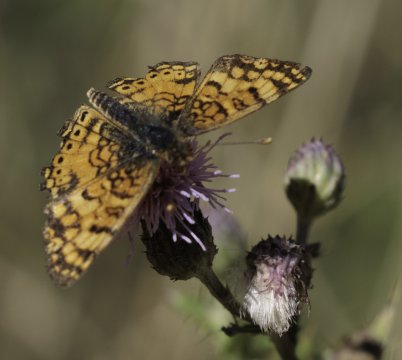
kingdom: Animalia
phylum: Arthropoda
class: Insecta
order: Lepidoptera
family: Nymphalidae
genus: Eresia
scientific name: Eresia aveyrona
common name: Mylitta Crescent
